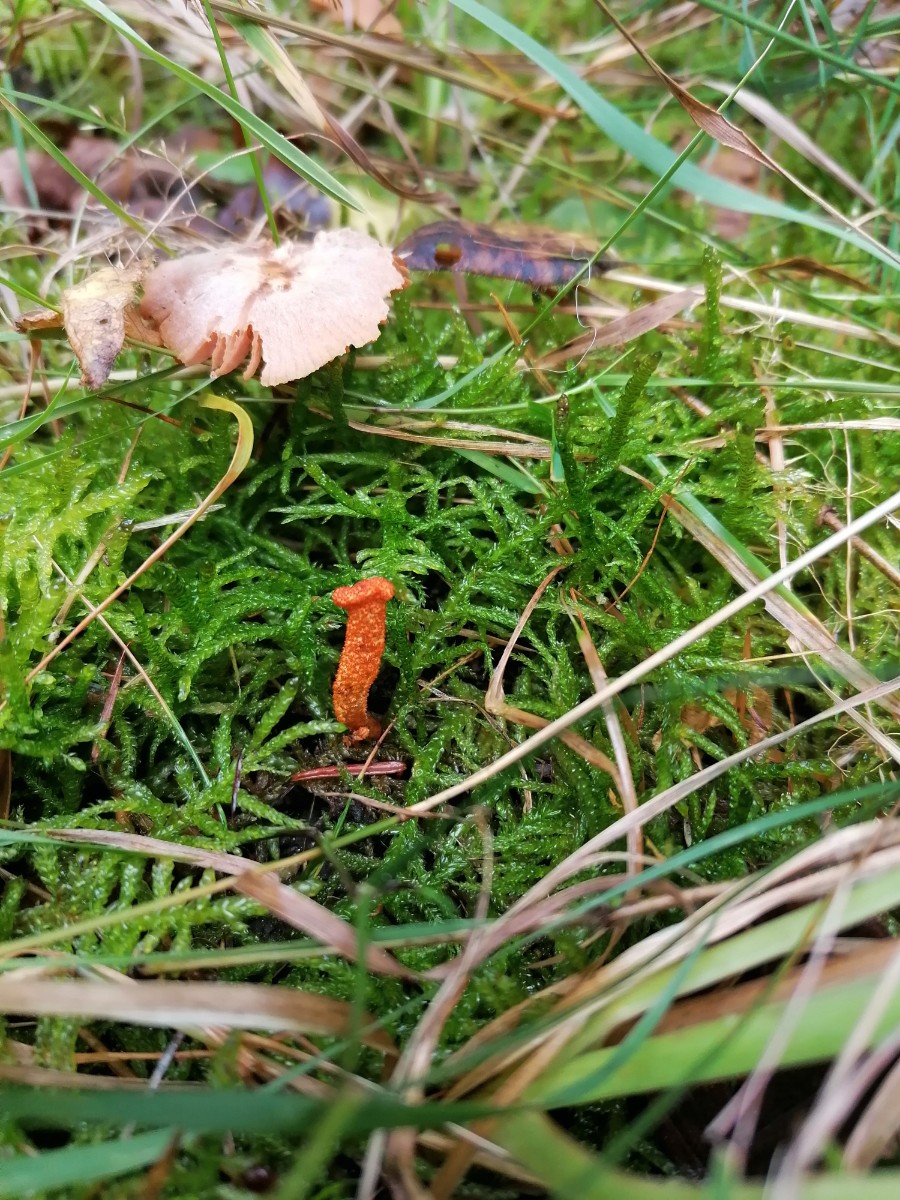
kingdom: Fungi
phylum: Ascomycota
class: Sordariomycetes
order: Hypocreales
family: Cordycipitaceae
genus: Cordyceps
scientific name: Cordyceps militaris
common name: puppe-snyltekølle
